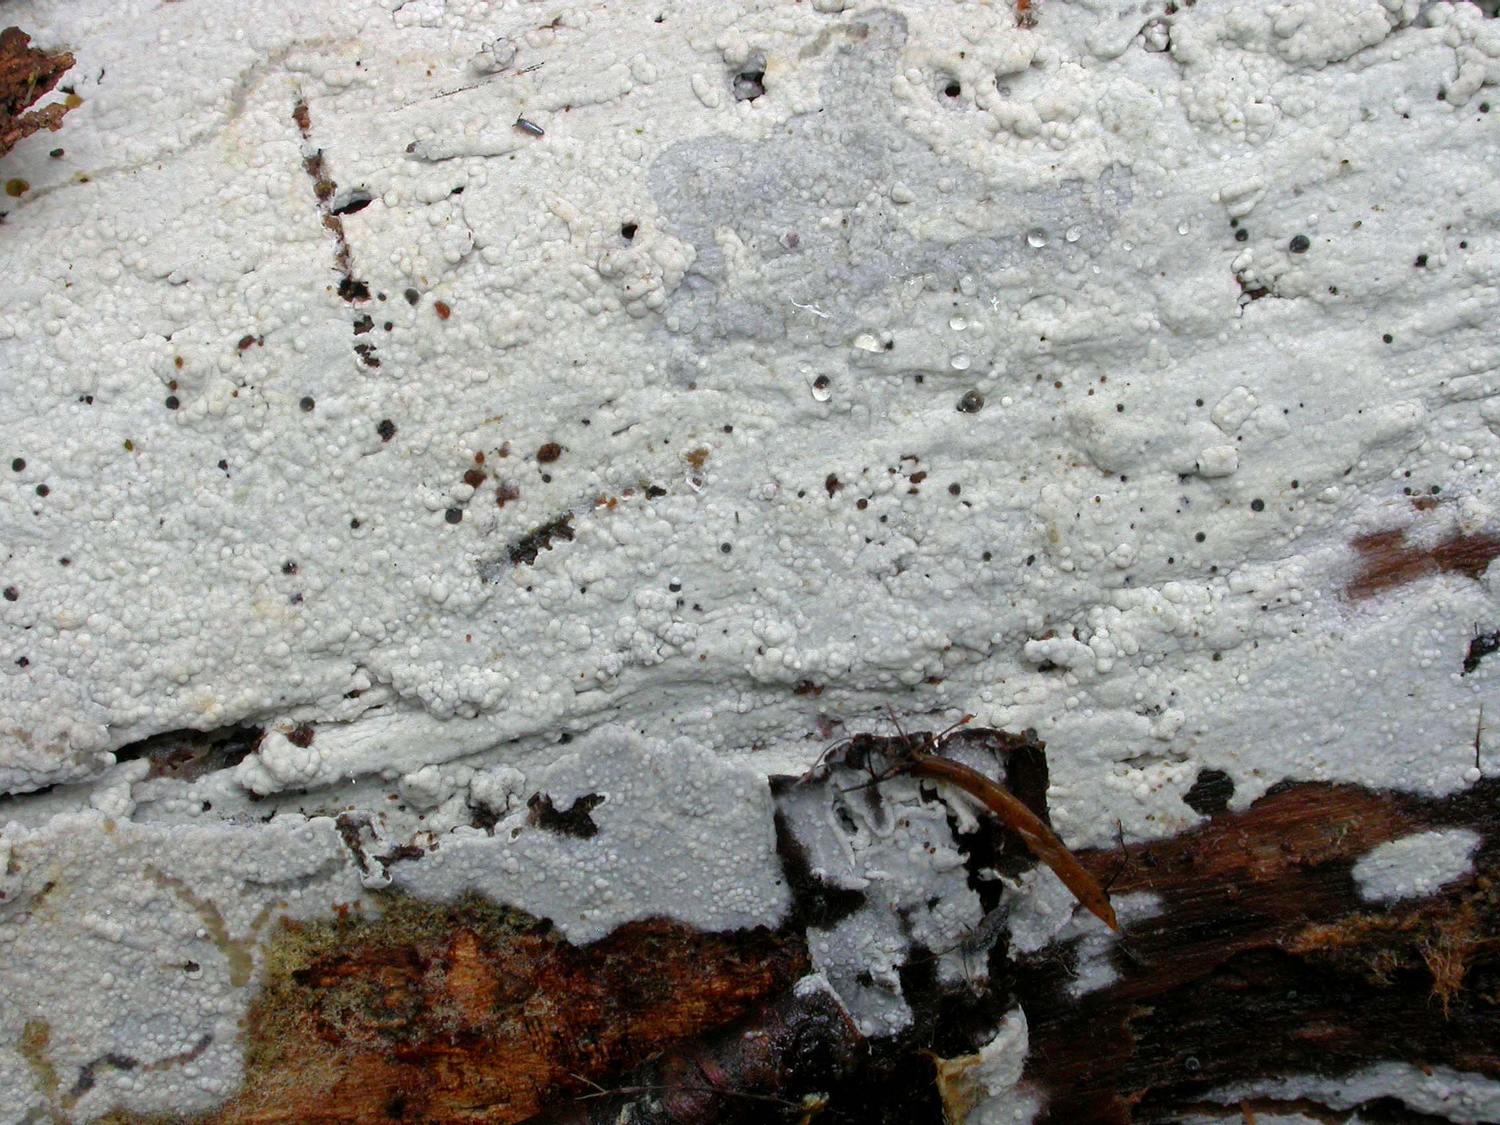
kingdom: Fungi
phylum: Basidiomycota
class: Agaricomycetes
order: Polyporales
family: Meruliaceae
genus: Hypochnicium
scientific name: Hypochnicium erikssonii
